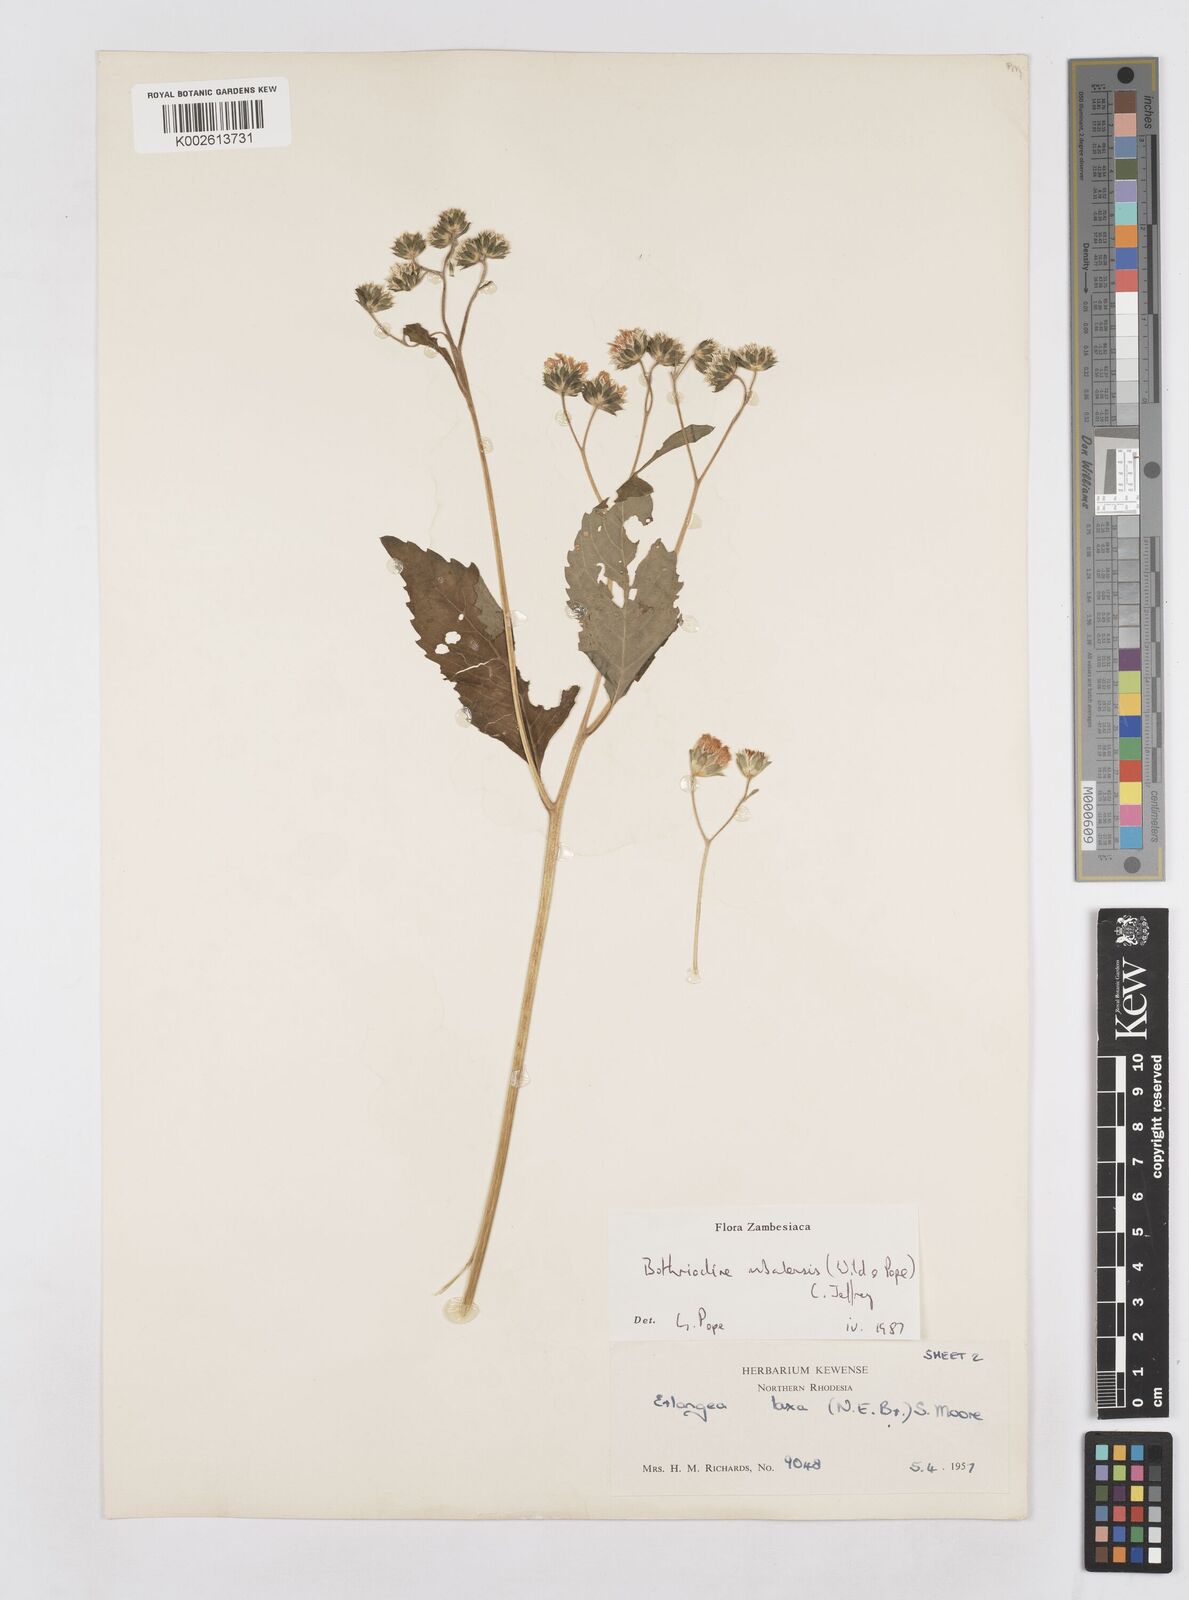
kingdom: Plantae
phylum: Tracheophyta
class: Magnoliopsida
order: Asterales
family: Asteraceae
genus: Bothriocline
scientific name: Bothriocline mbalensis
